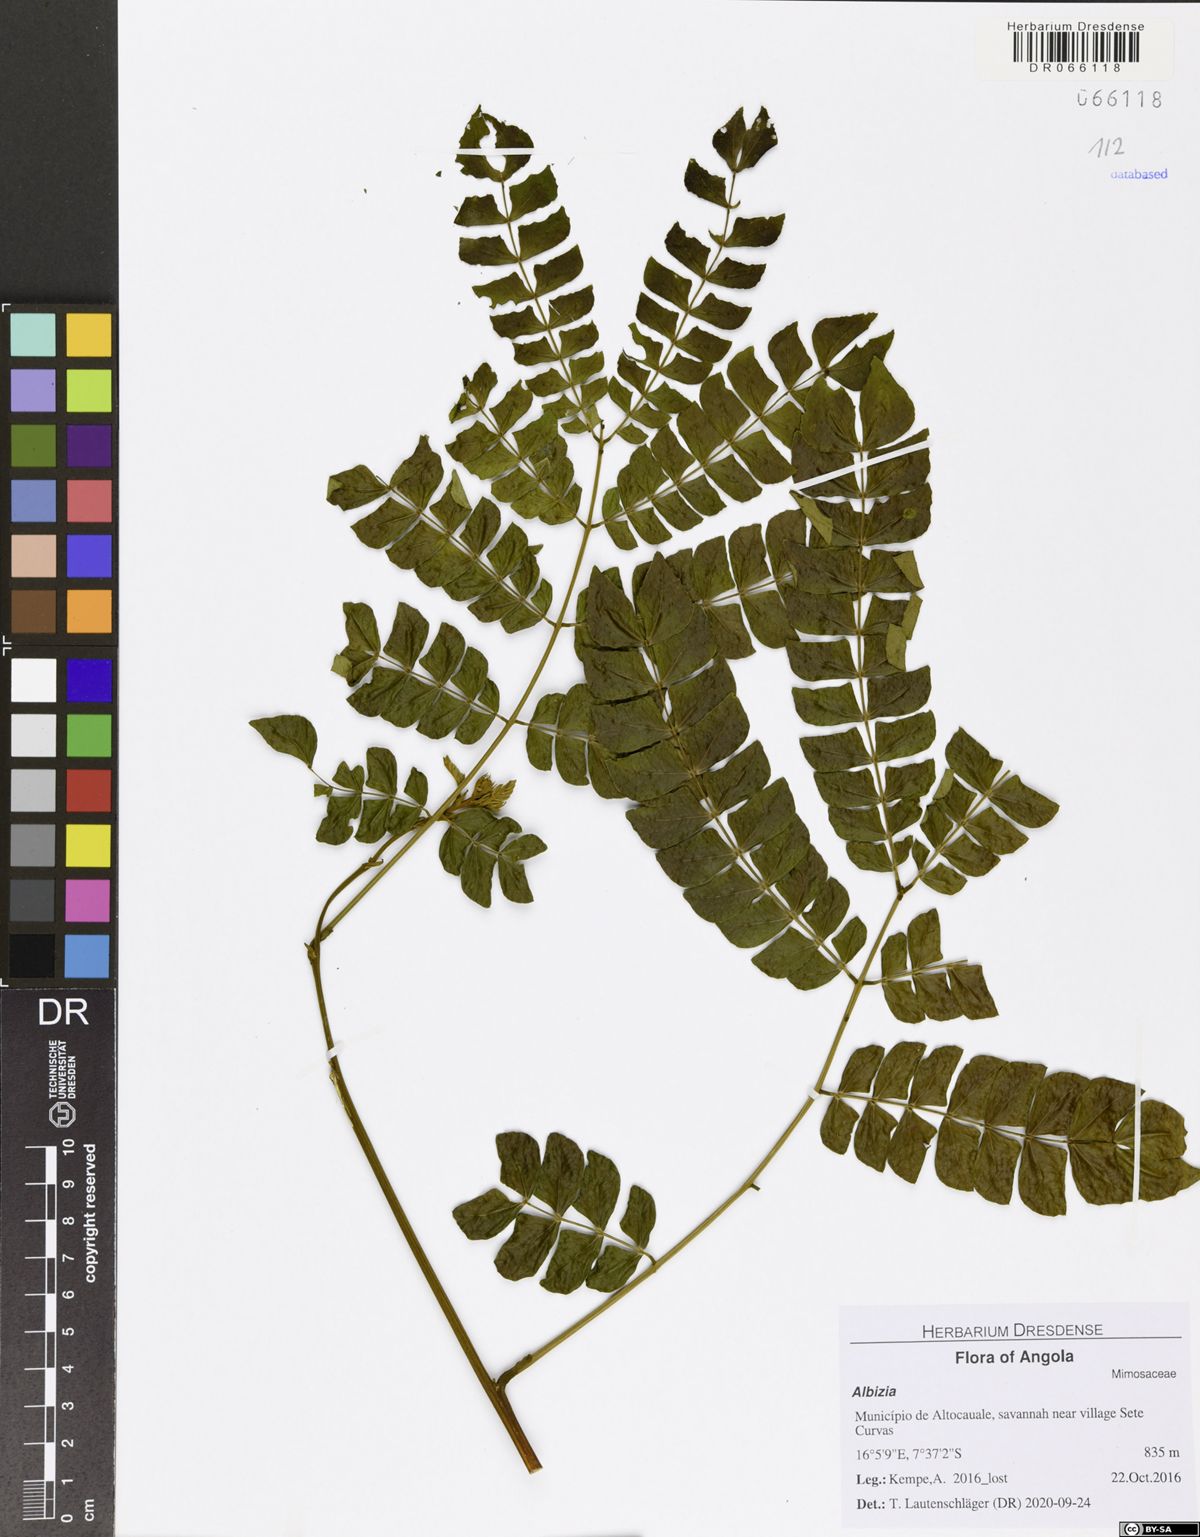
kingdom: Plantae
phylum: Tracheophyta
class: Magnoliopsida
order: Fabales
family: Fabaceae
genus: Albizia
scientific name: Albizia mossamedensis
